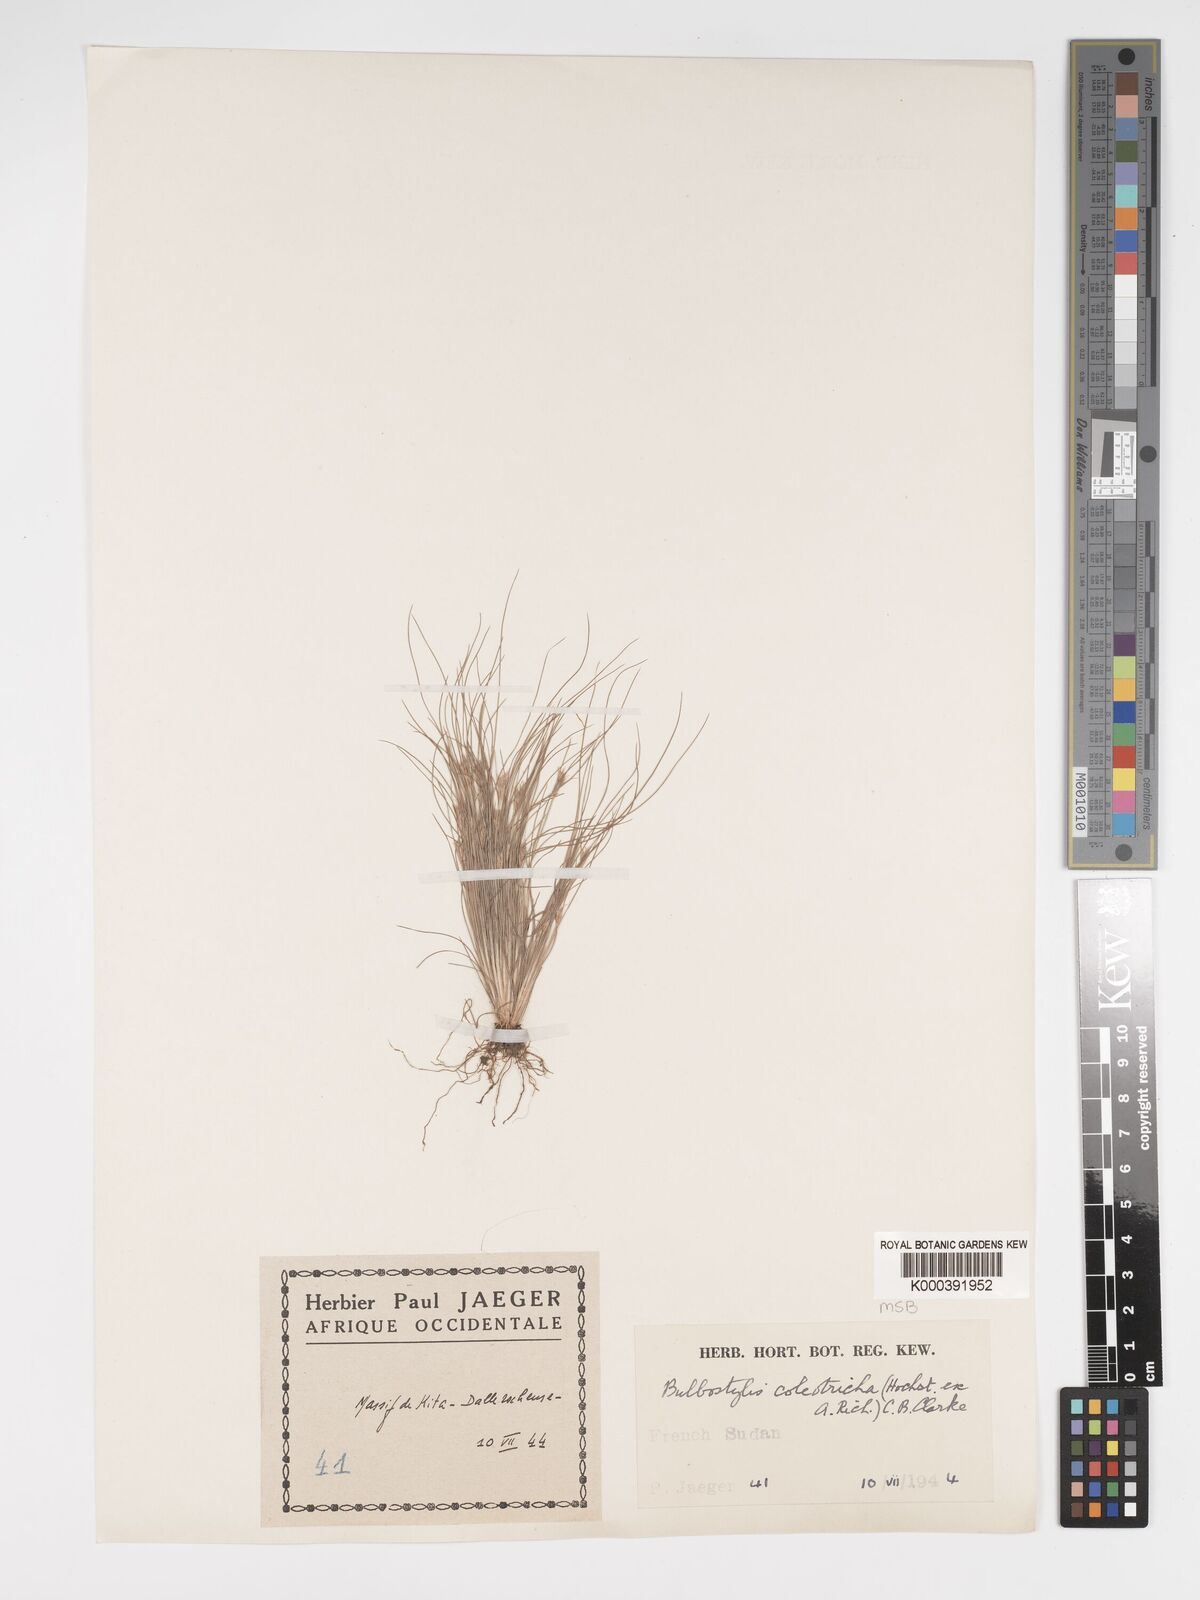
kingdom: Plantae
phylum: Tracheophyta
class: Liliopsida
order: Poales
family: Cyperaceae
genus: Bulbostylis
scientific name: Bulbostylis coleotricha
